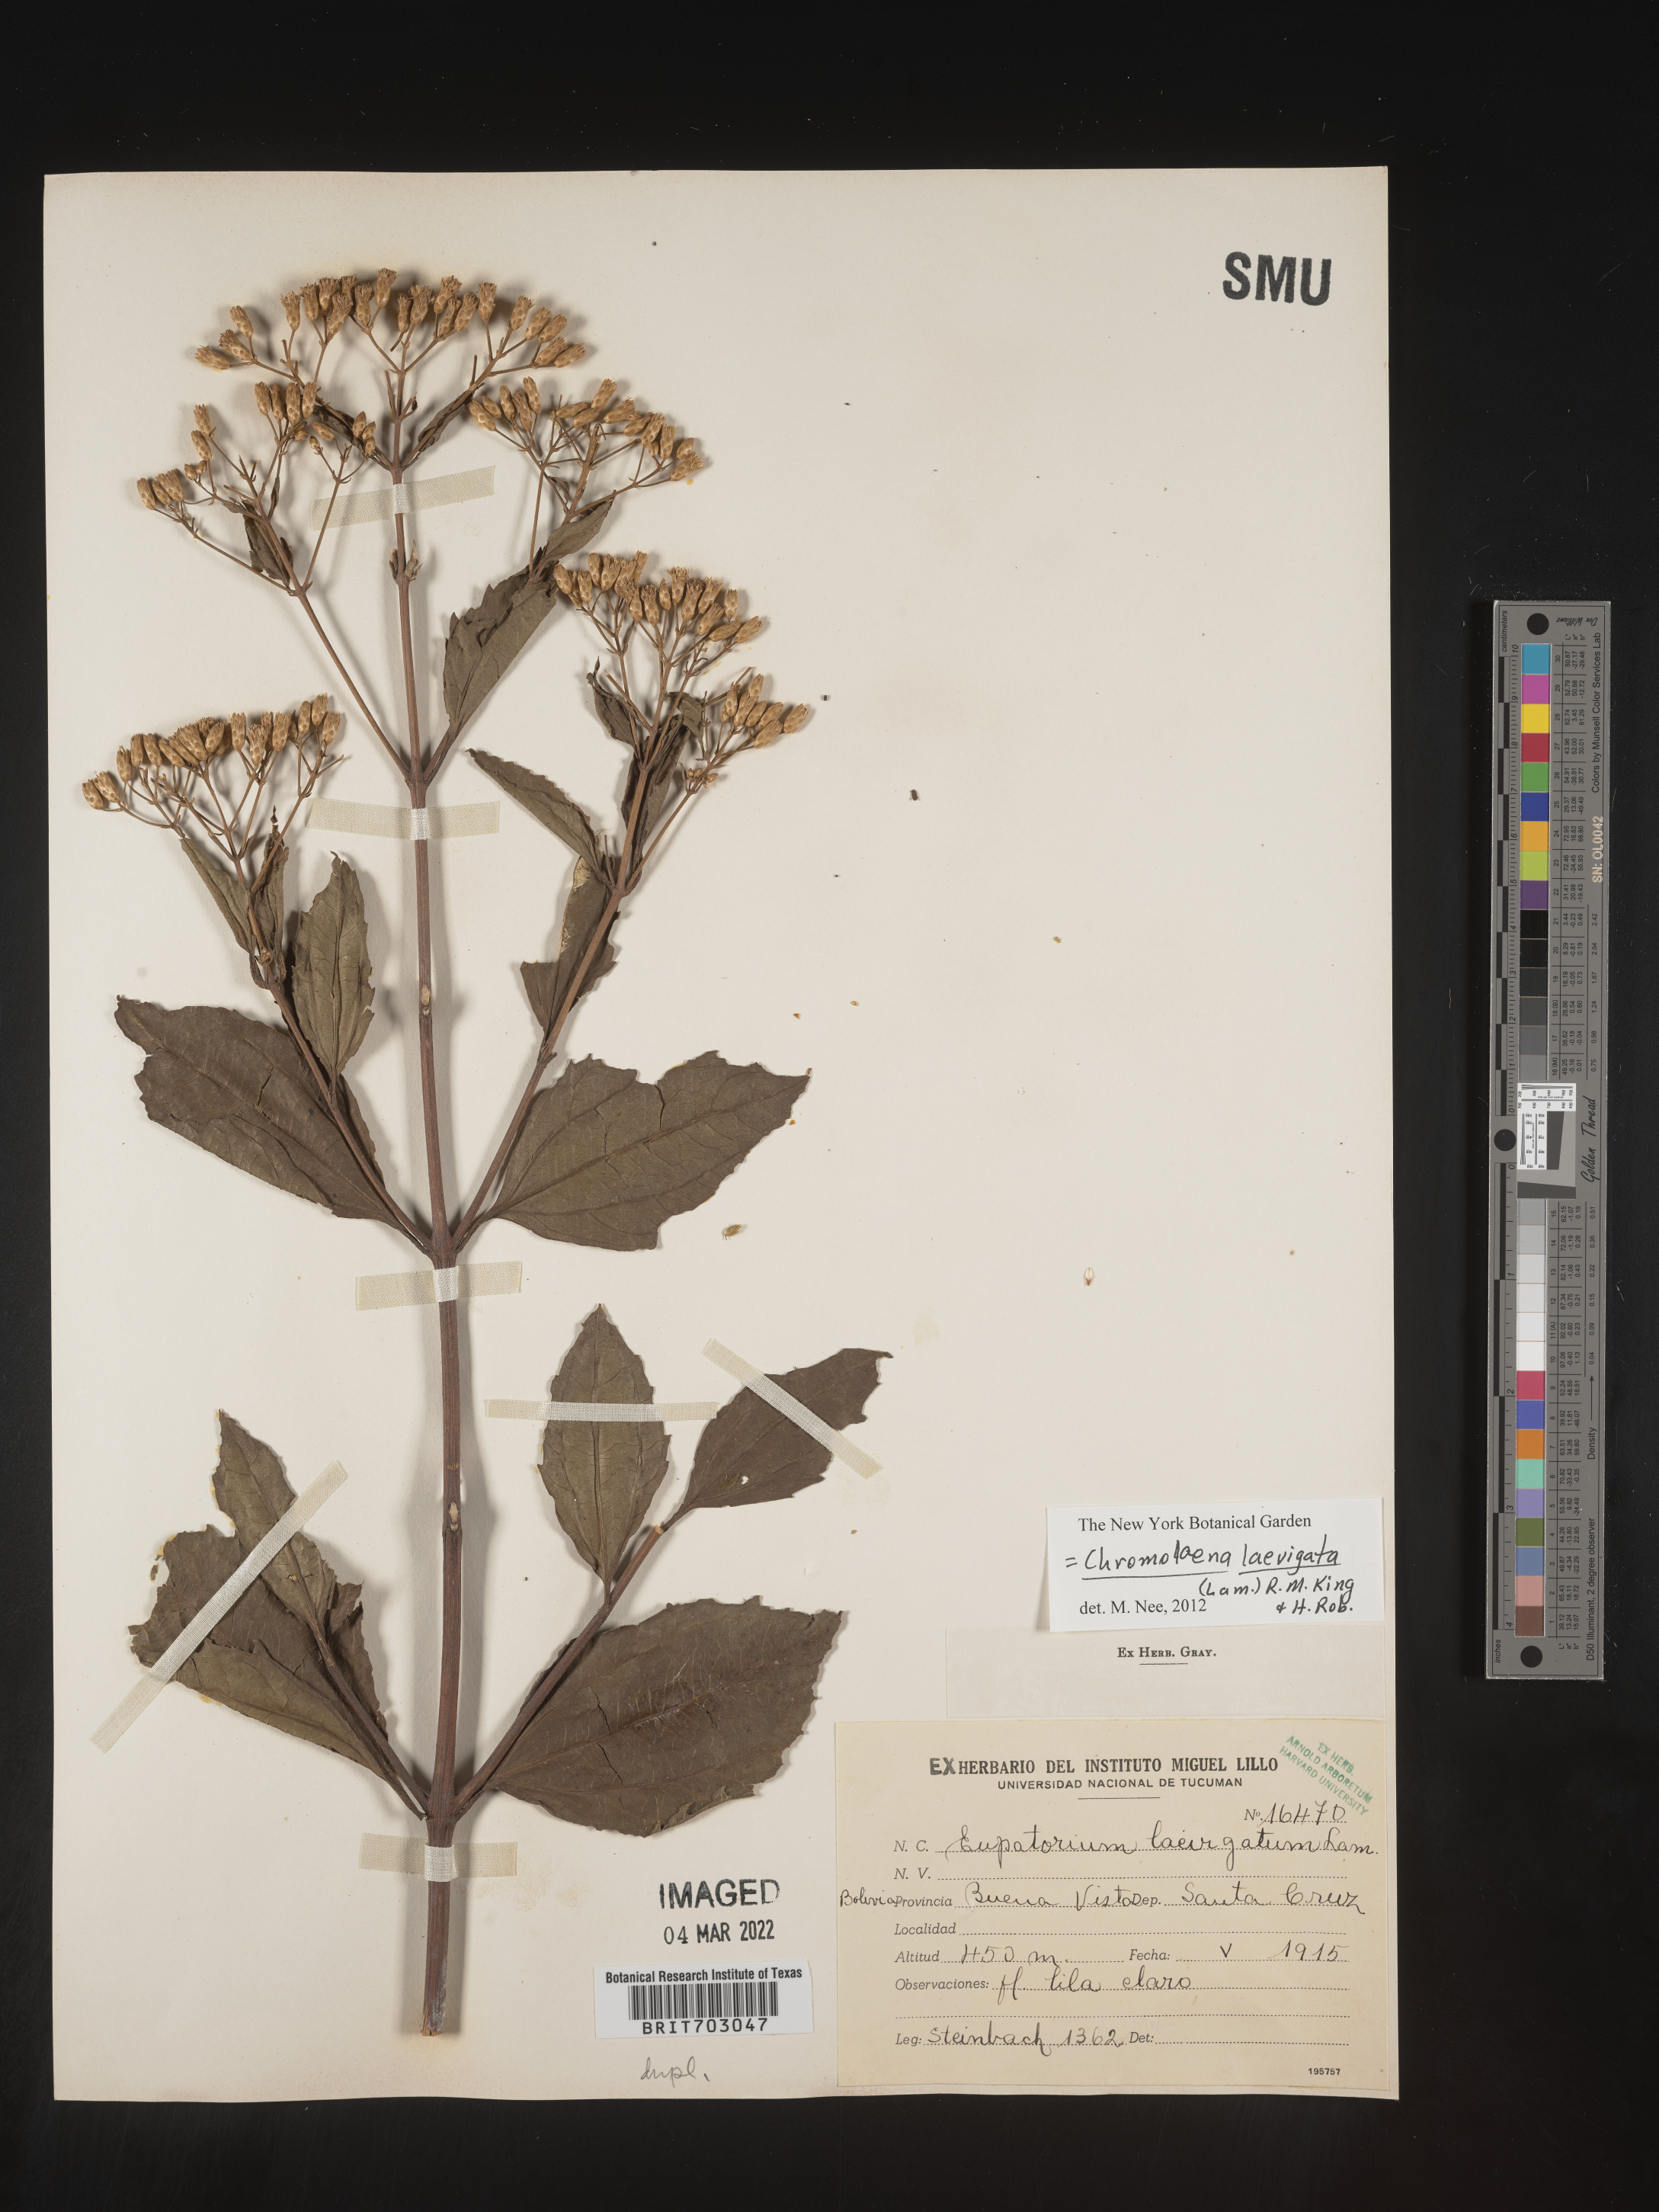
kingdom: Plantae
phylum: Tracheophyta
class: Magnoliopsida
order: Asterales
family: Asteraceae
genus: Eupatorium
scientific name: Eupatorium
